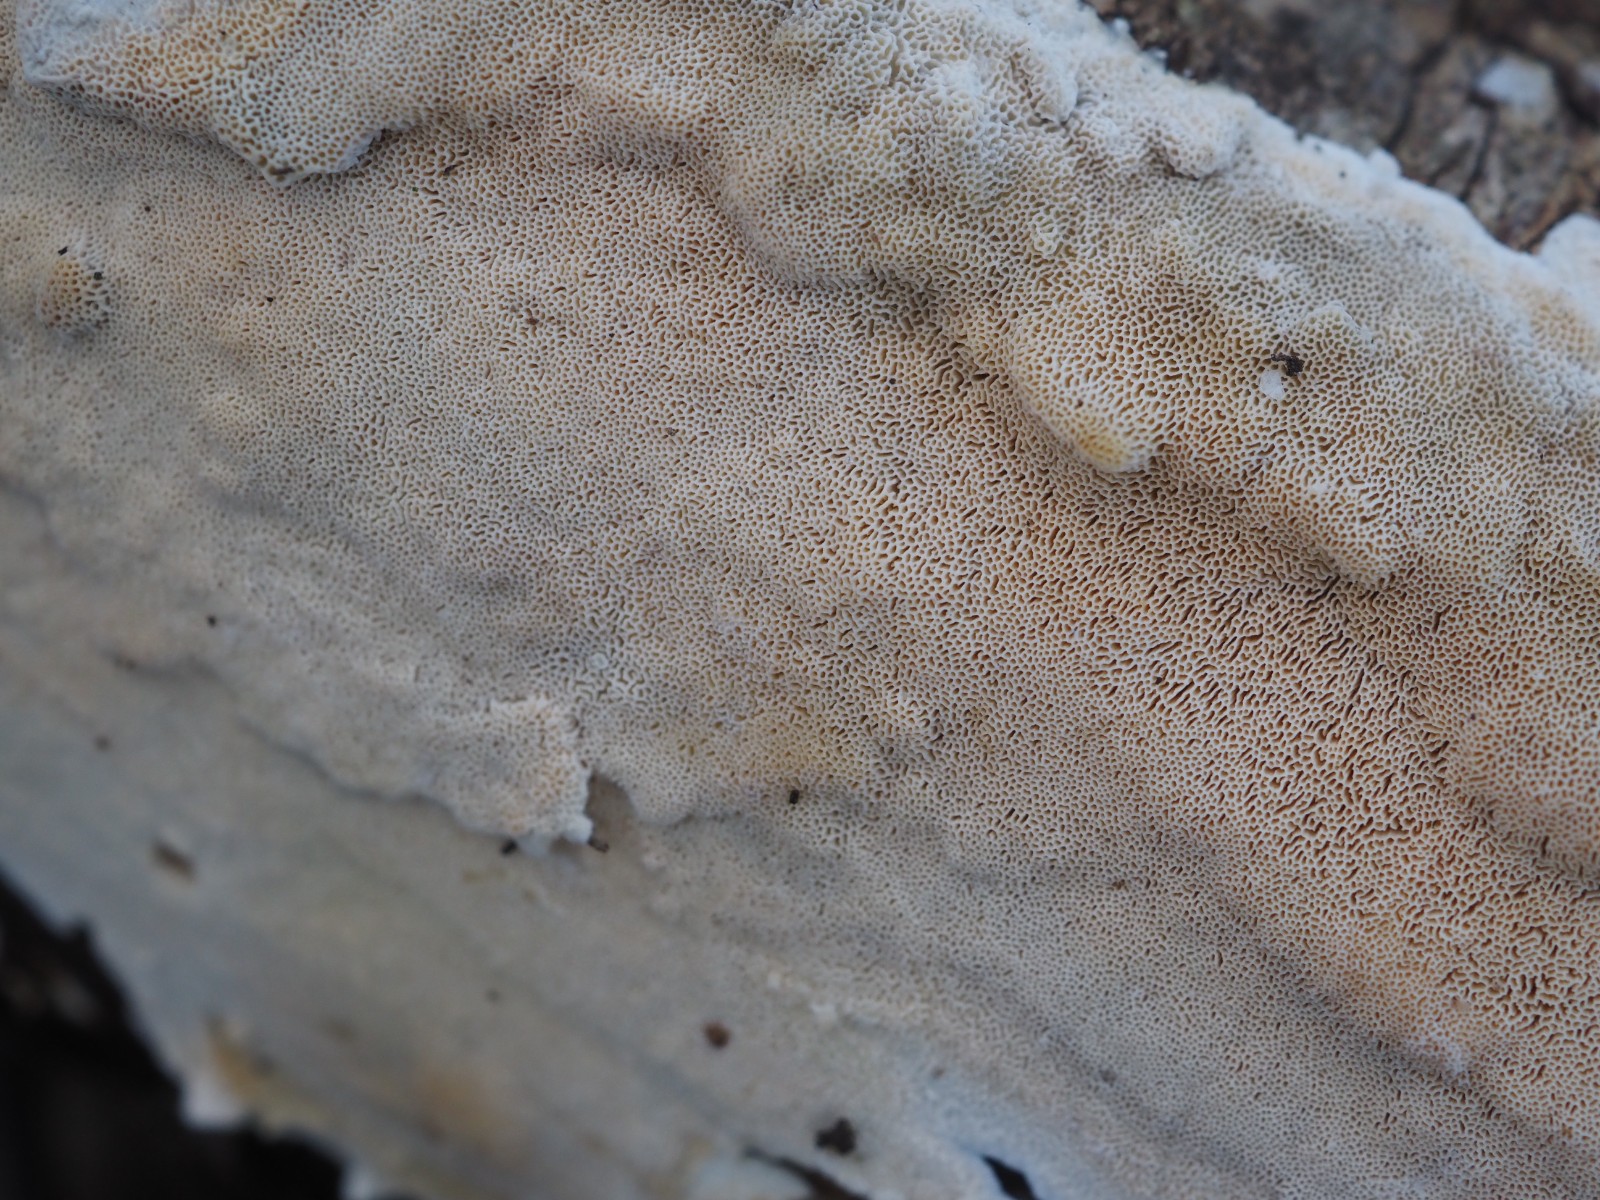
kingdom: Fungi
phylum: Basidiomycota
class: Agaricomycetes
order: Polyporales
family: Steccherinaceae
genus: Junghuhnia
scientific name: Junghuhnia nitida
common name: almindelig skønporesvamp
